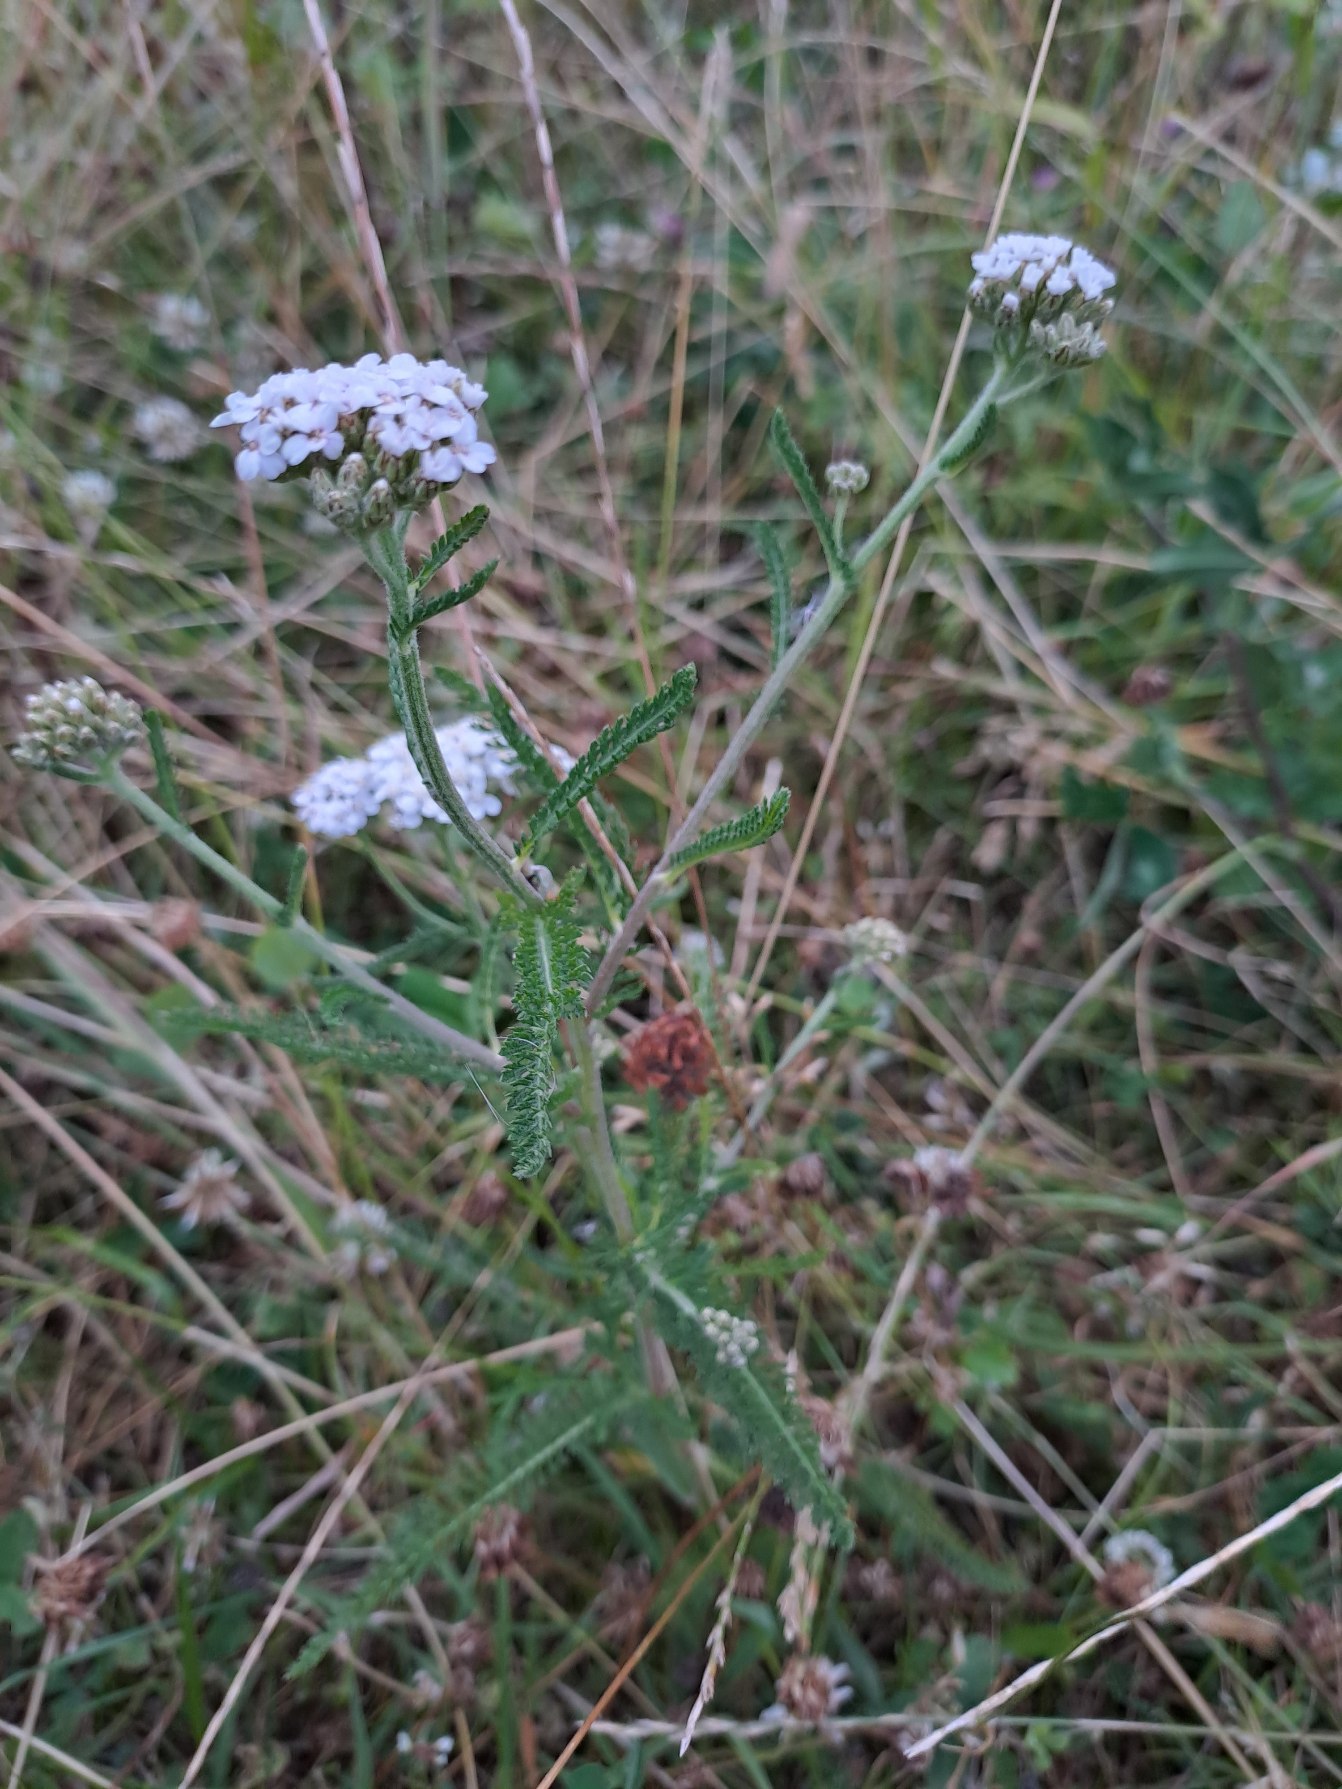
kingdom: Plantae
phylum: Tracheophyta
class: Magnoliopsida
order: Asterales
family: Asteraceae
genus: Achillea
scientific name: Achillea millefolium
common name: Almindelig røllike
